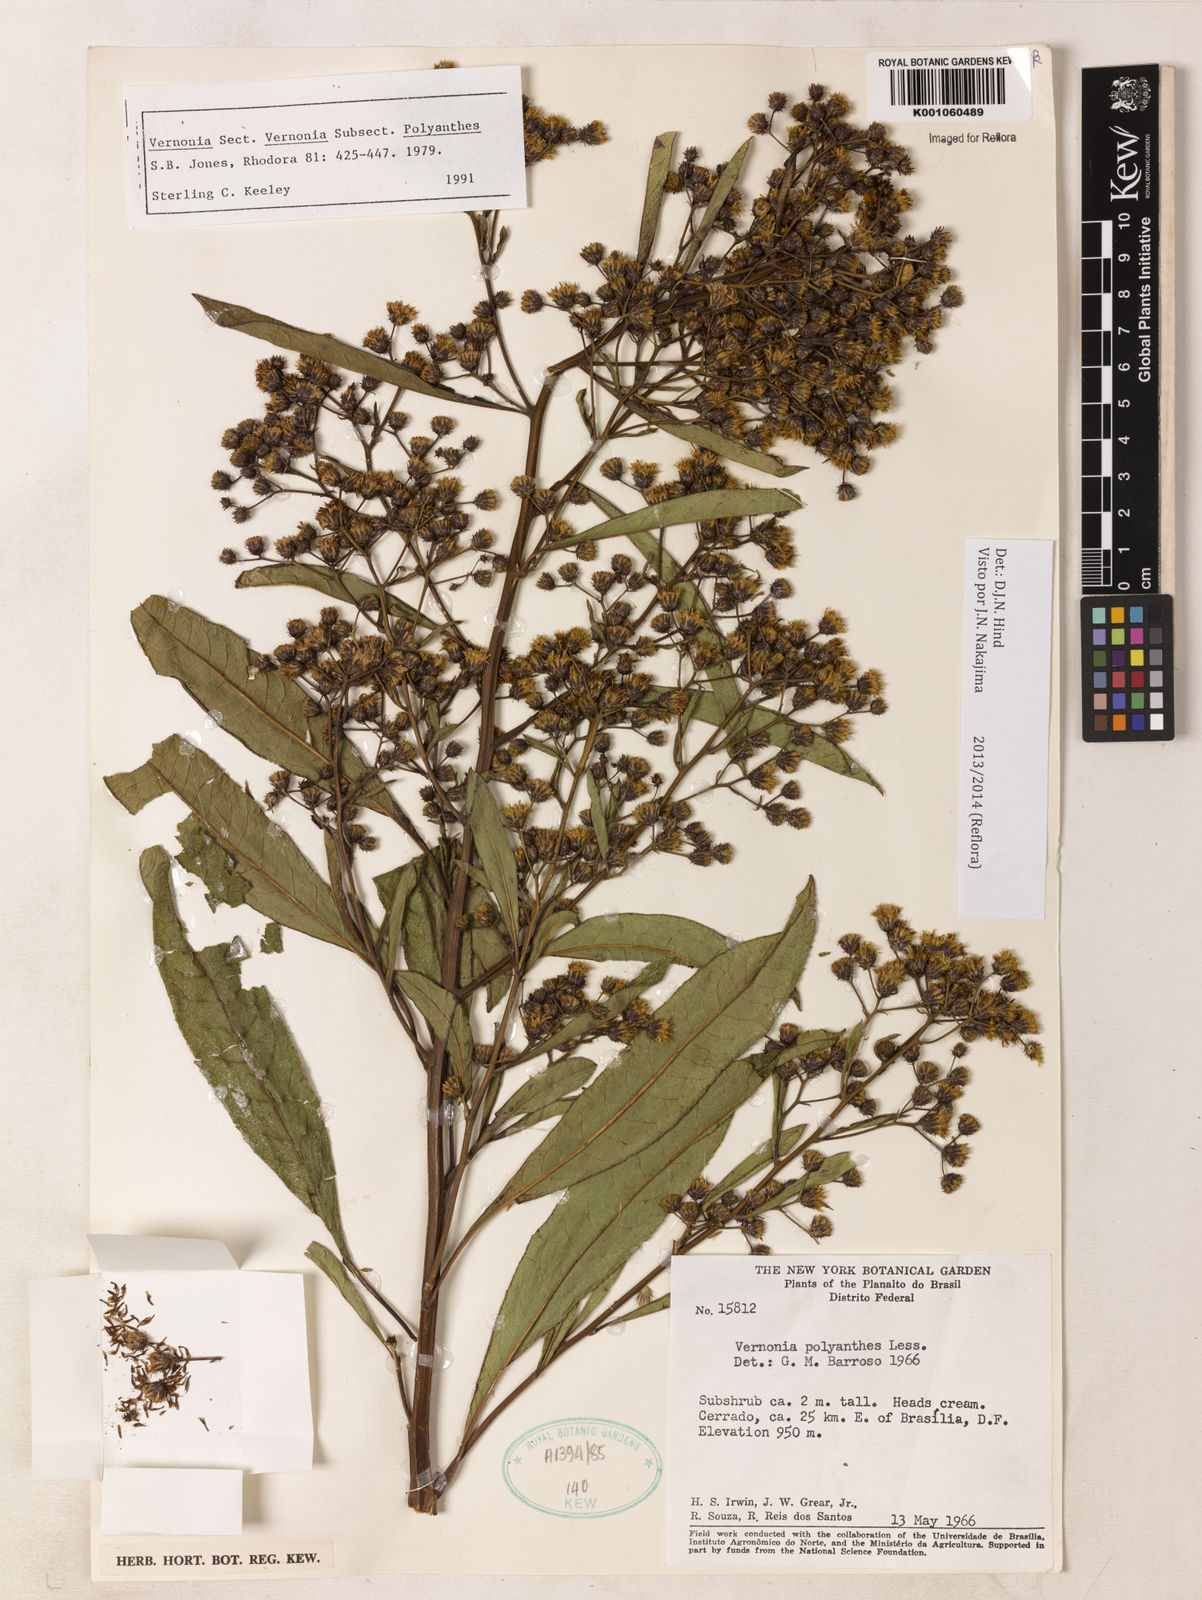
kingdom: Plantae
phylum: Tracheophyta
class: Magnoliopsida
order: Asterales
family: Asteraceae
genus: Vernonanthura
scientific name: Vernonanthura polyanthes
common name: Tree aster
